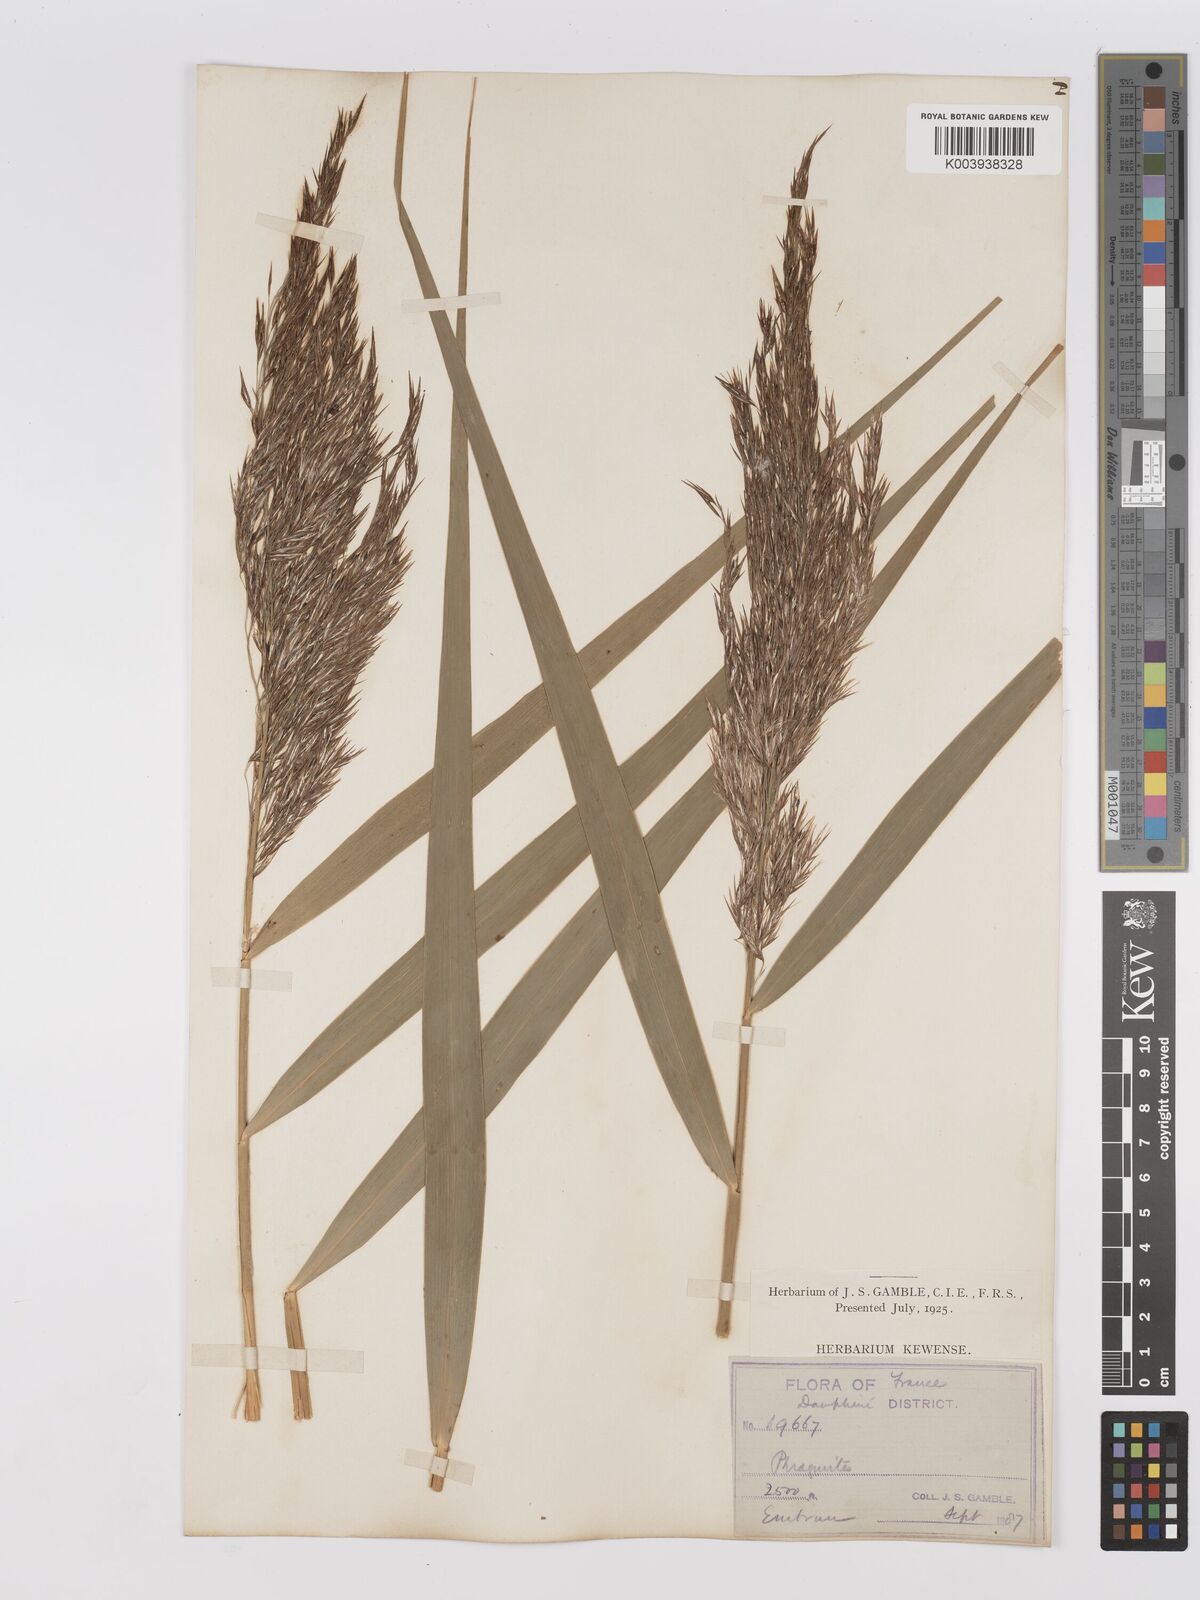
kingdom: Plantae
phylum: Tracheophyta
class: Liliopsida
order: Poales
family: Poaceae
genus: Phragmites
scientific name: Phragmites australis
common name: Common reed
